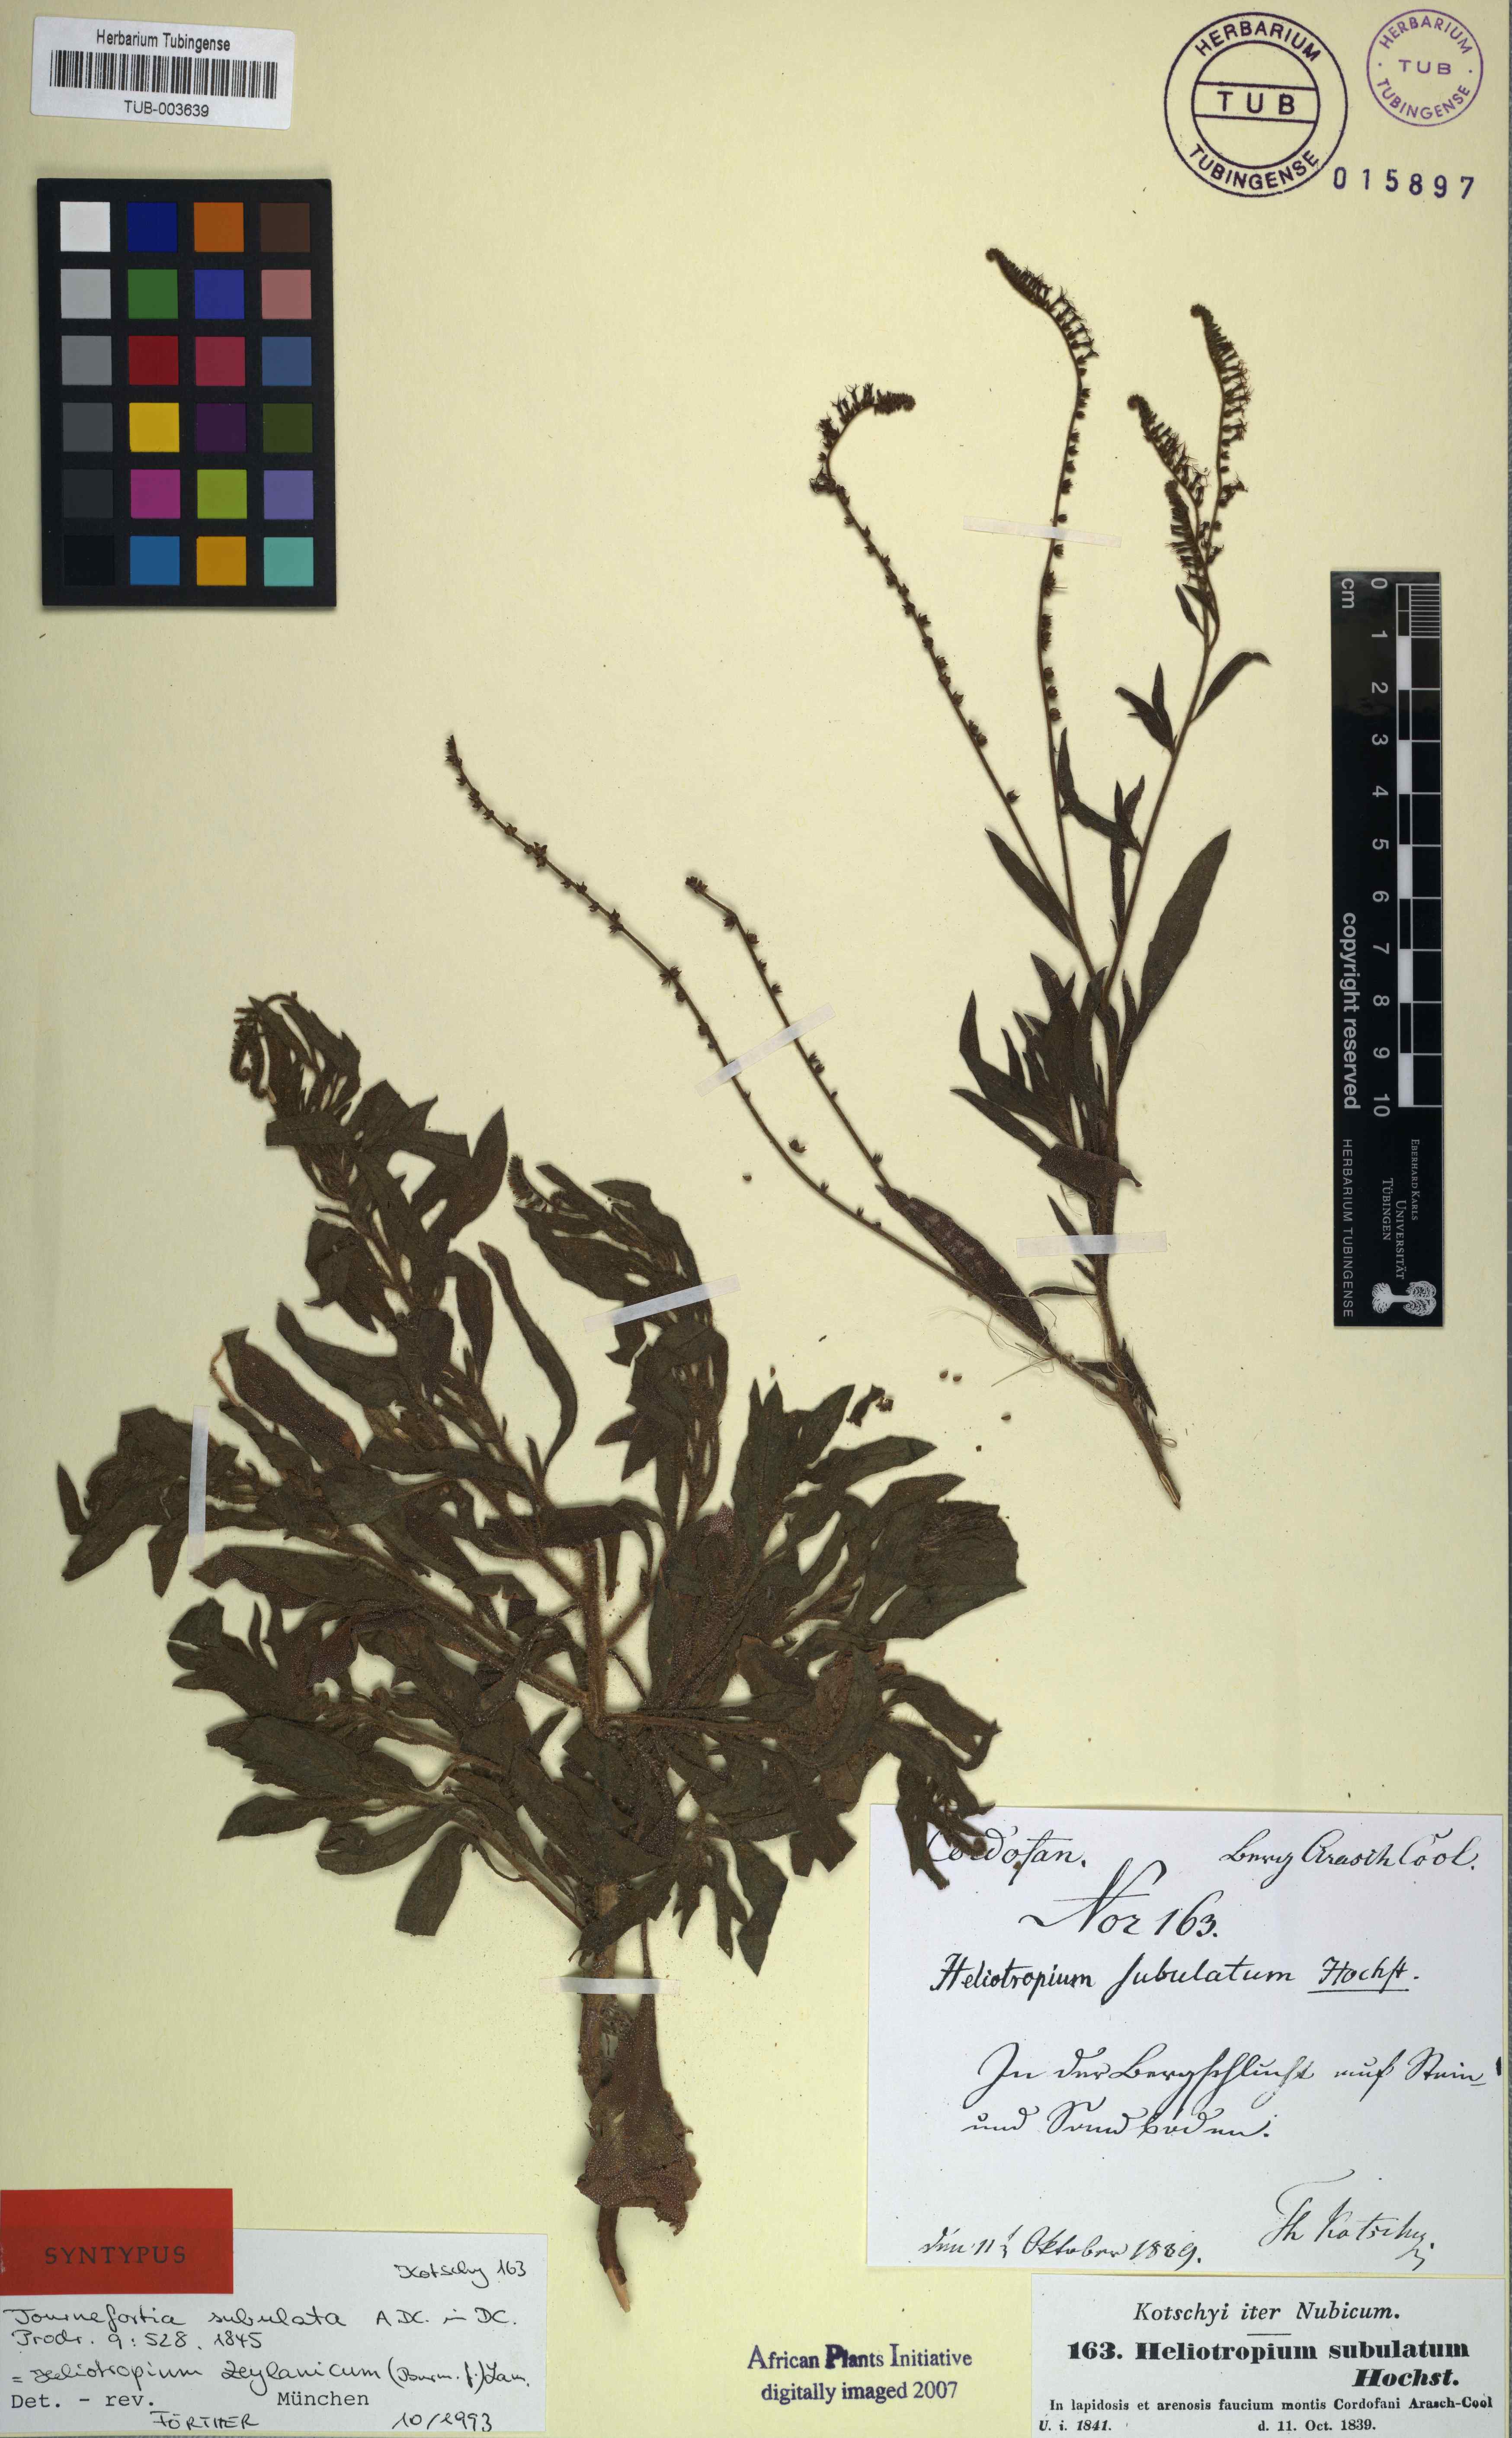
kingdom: Plantae
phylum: Tracheophyta
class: Magnoliopsida
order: Boraginales
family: Heliotropiaceae
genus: Heliotropium
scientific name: Heliotropium zeylanicum
